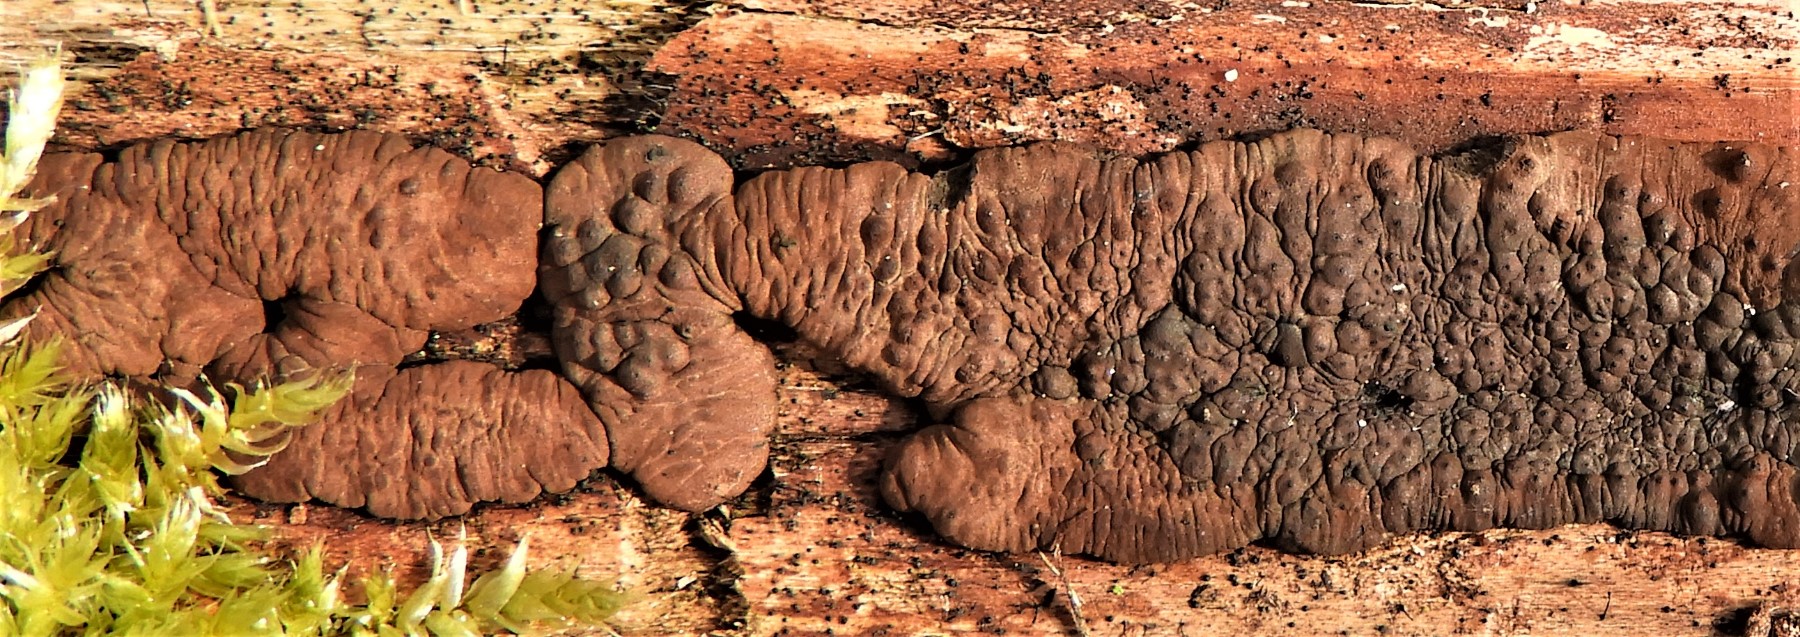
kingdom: Fungi
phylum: Ascomycota
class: Sordariomycetes
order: Xylariales
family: Hypoxylaceae
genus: Jackrogersella
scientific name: Jackrogersella
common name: kulbær
